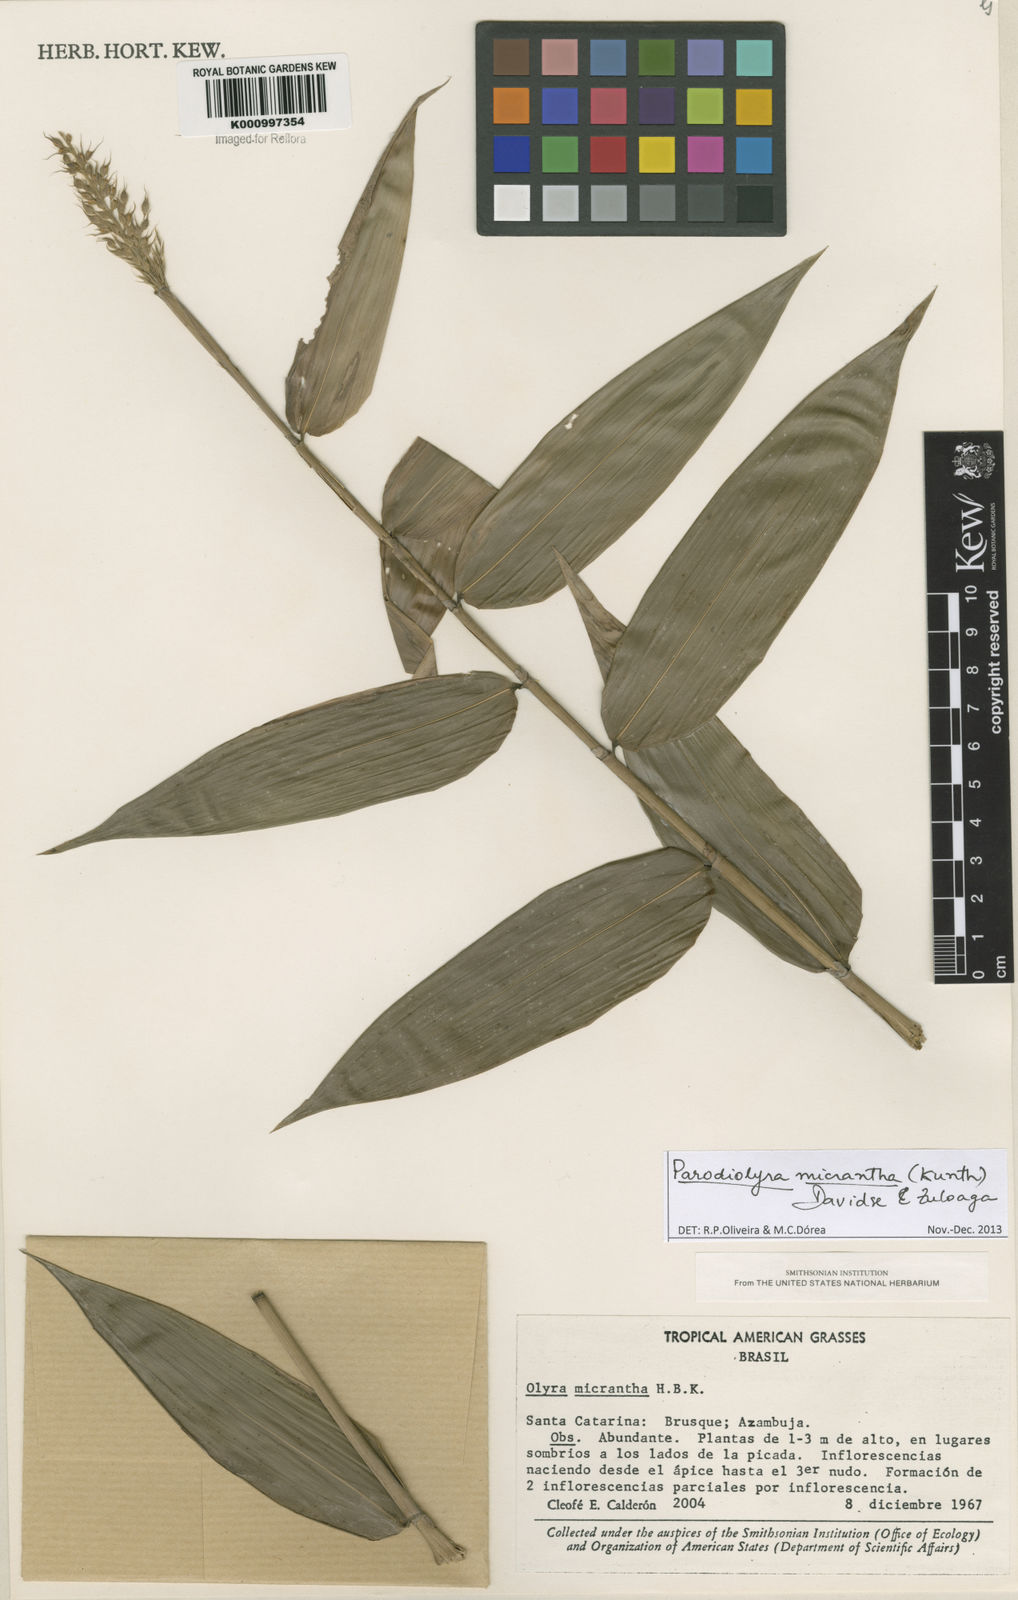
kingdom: Plantae
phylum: Tracheophyta
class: Liliopsida
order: Poales
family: Poaceae
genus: Taquara
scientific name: Taquara micrantha
